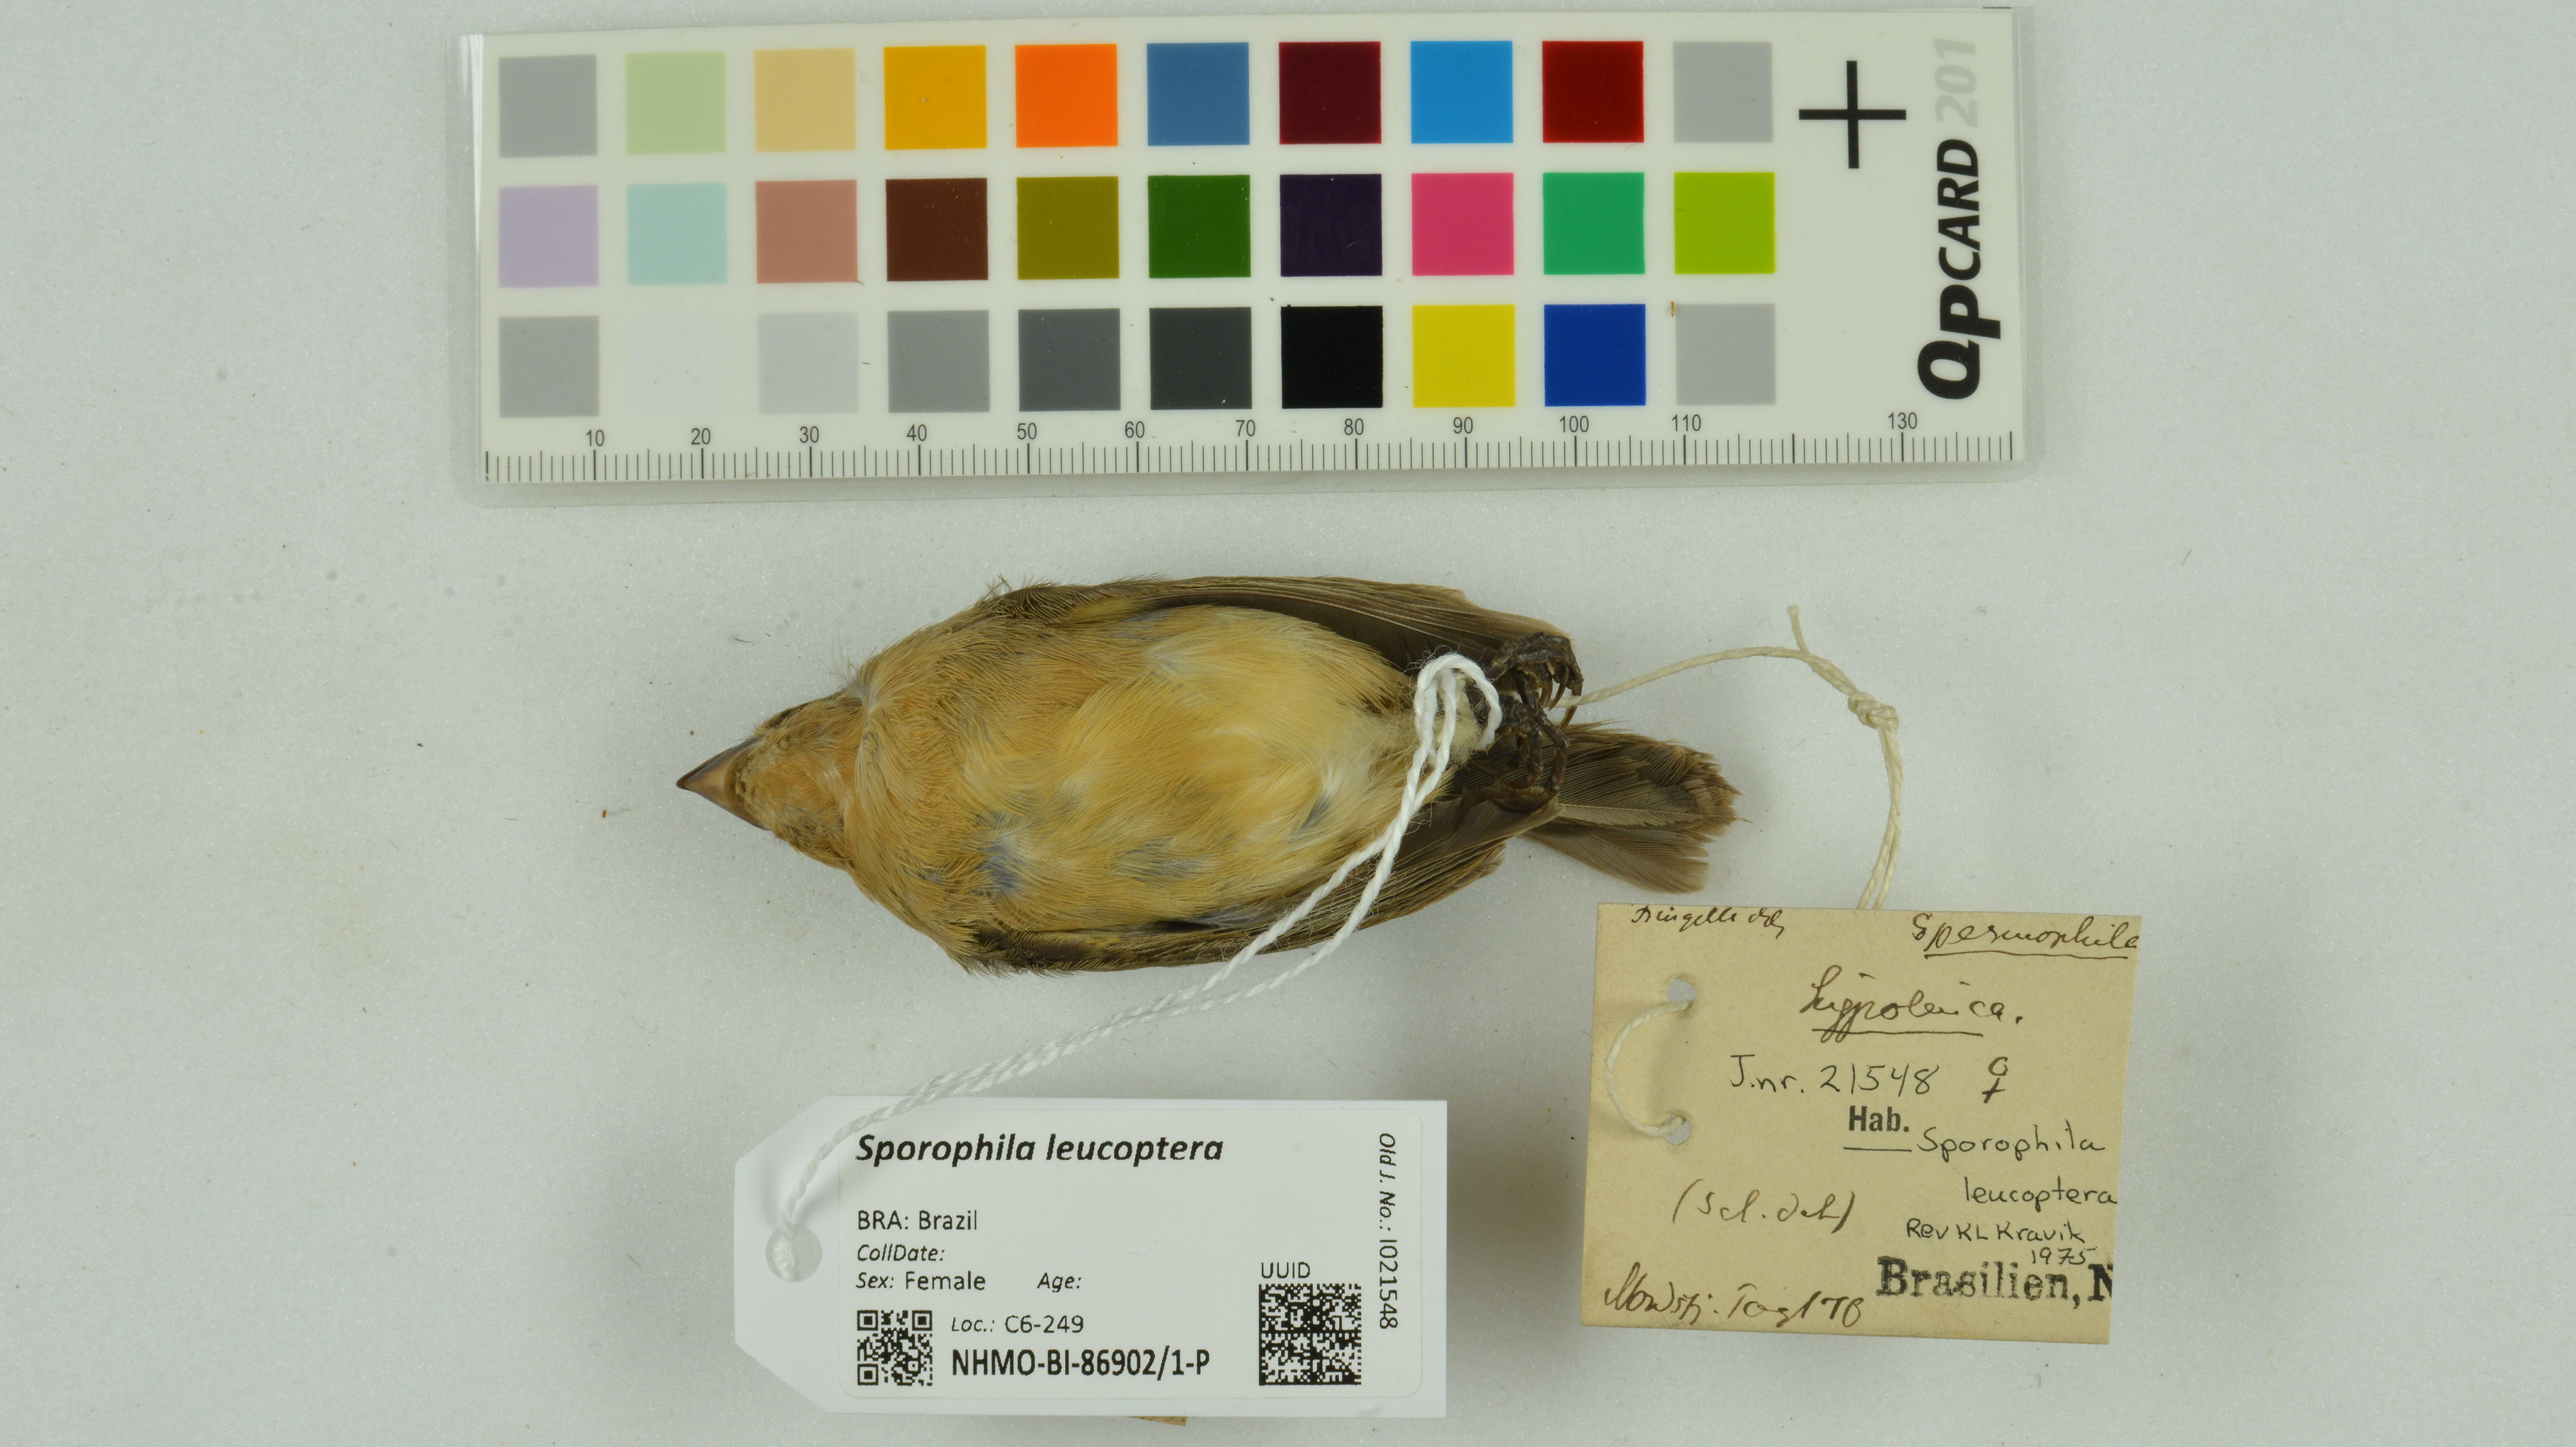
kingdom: Animalia
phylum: Chordata
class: Aves
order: Passeriformes
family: Thraupidae
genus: Sporophila
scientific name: Sporophila leucoptera
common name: White-bellied seedeater
